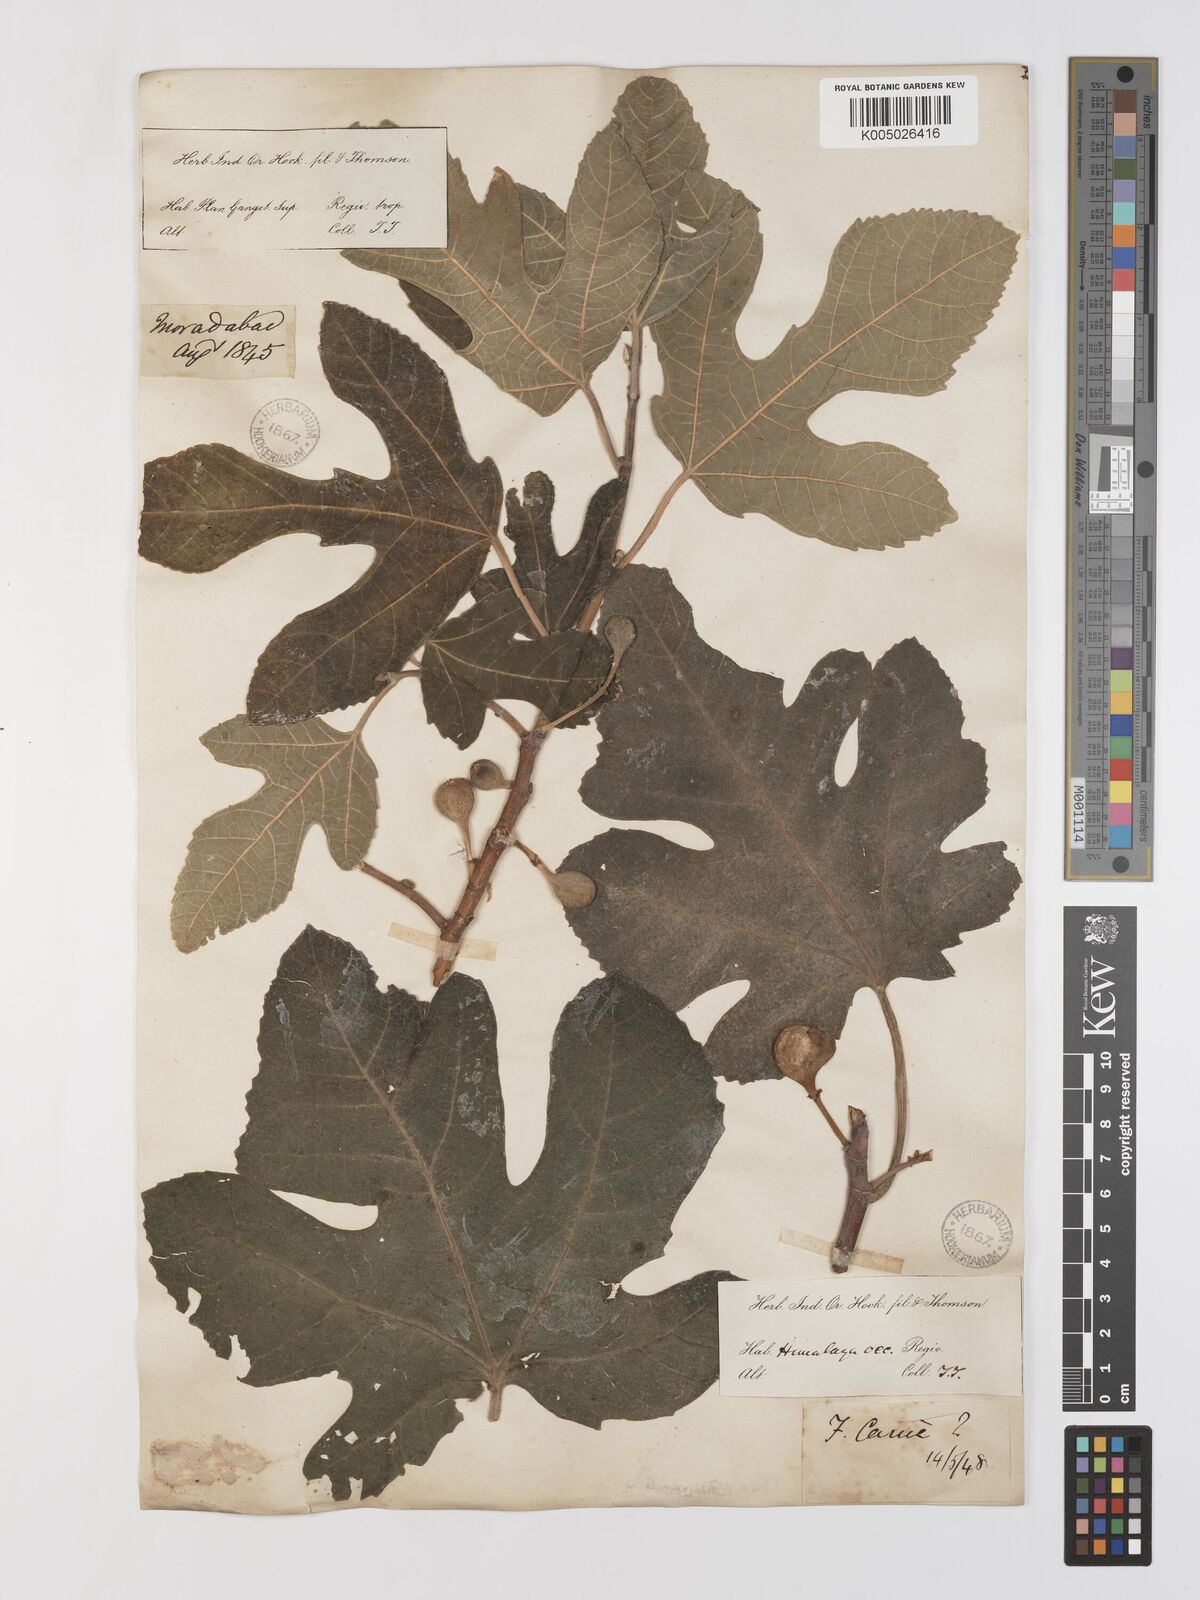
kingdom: Plantae
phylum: Tracheophyta
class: Magnoliopsida
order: Rosales
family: Moraceae
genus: Ficus
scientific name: Ficus carica
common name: Fig
